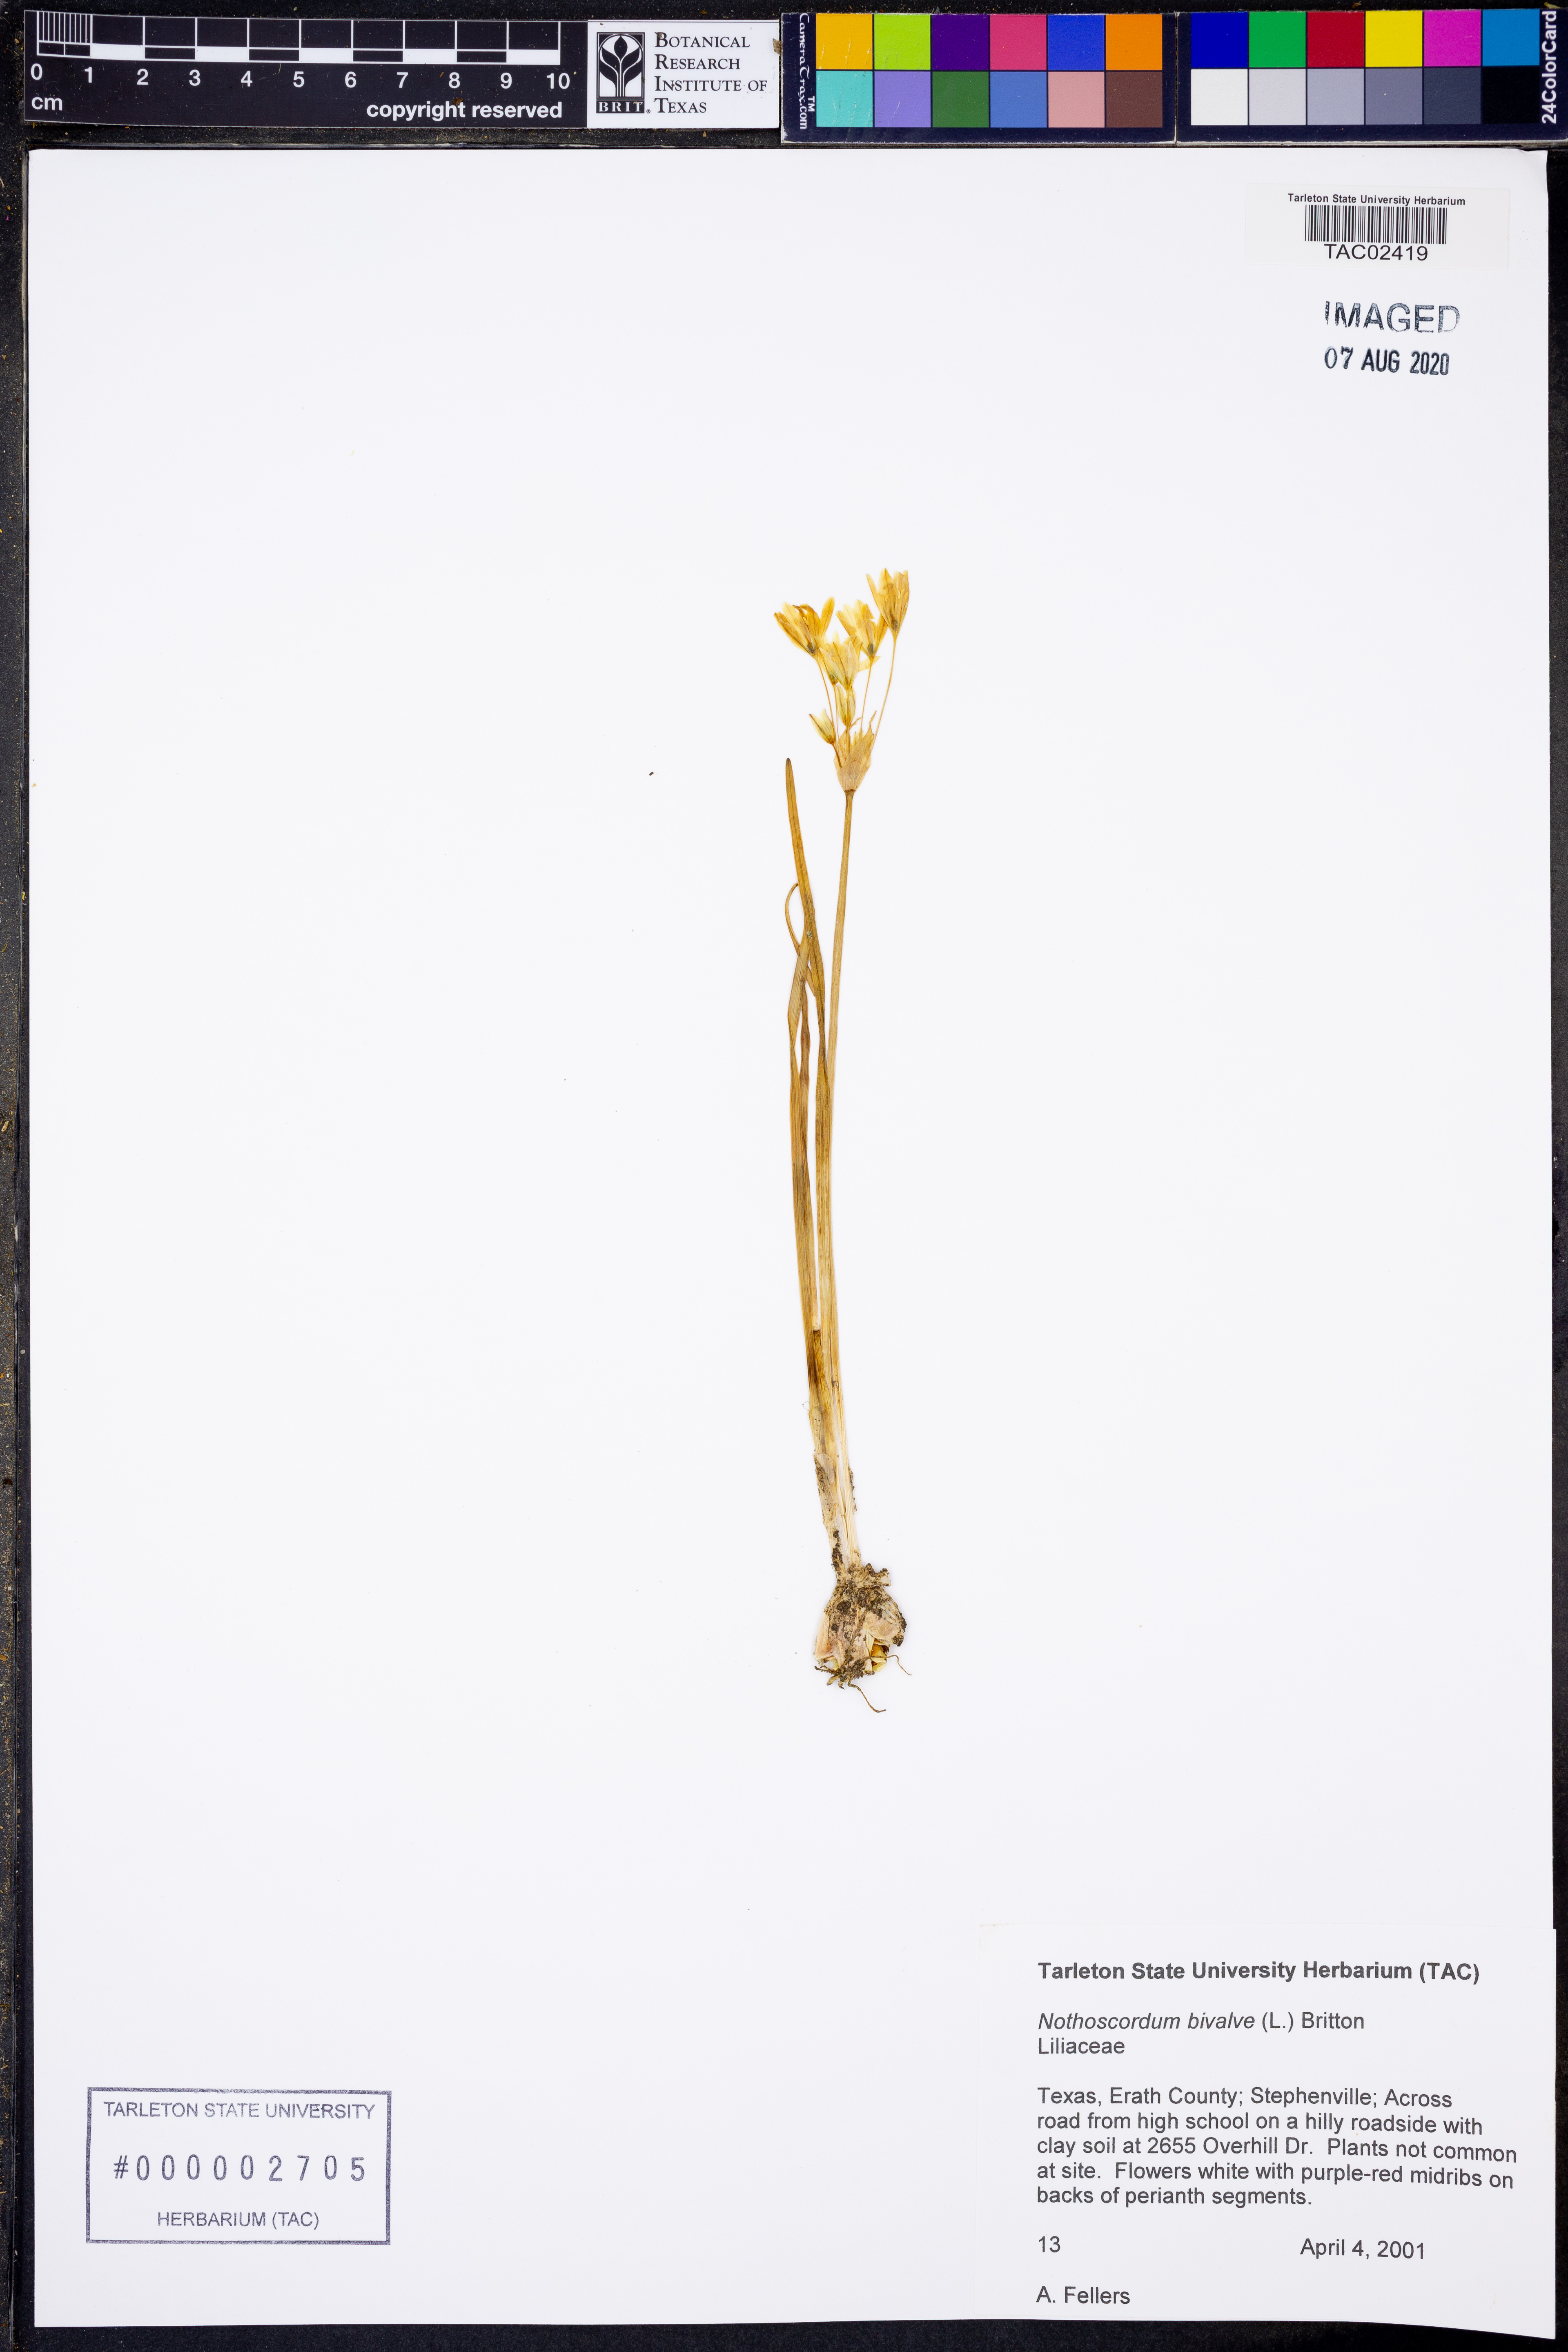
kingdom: Plantae
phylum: Tracheophyta
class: Liliopsida
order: Asparagales
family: Amaryllidaceae
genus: Nothoscordum
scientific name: Nothoscordum bivalve
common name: Crow-poison
